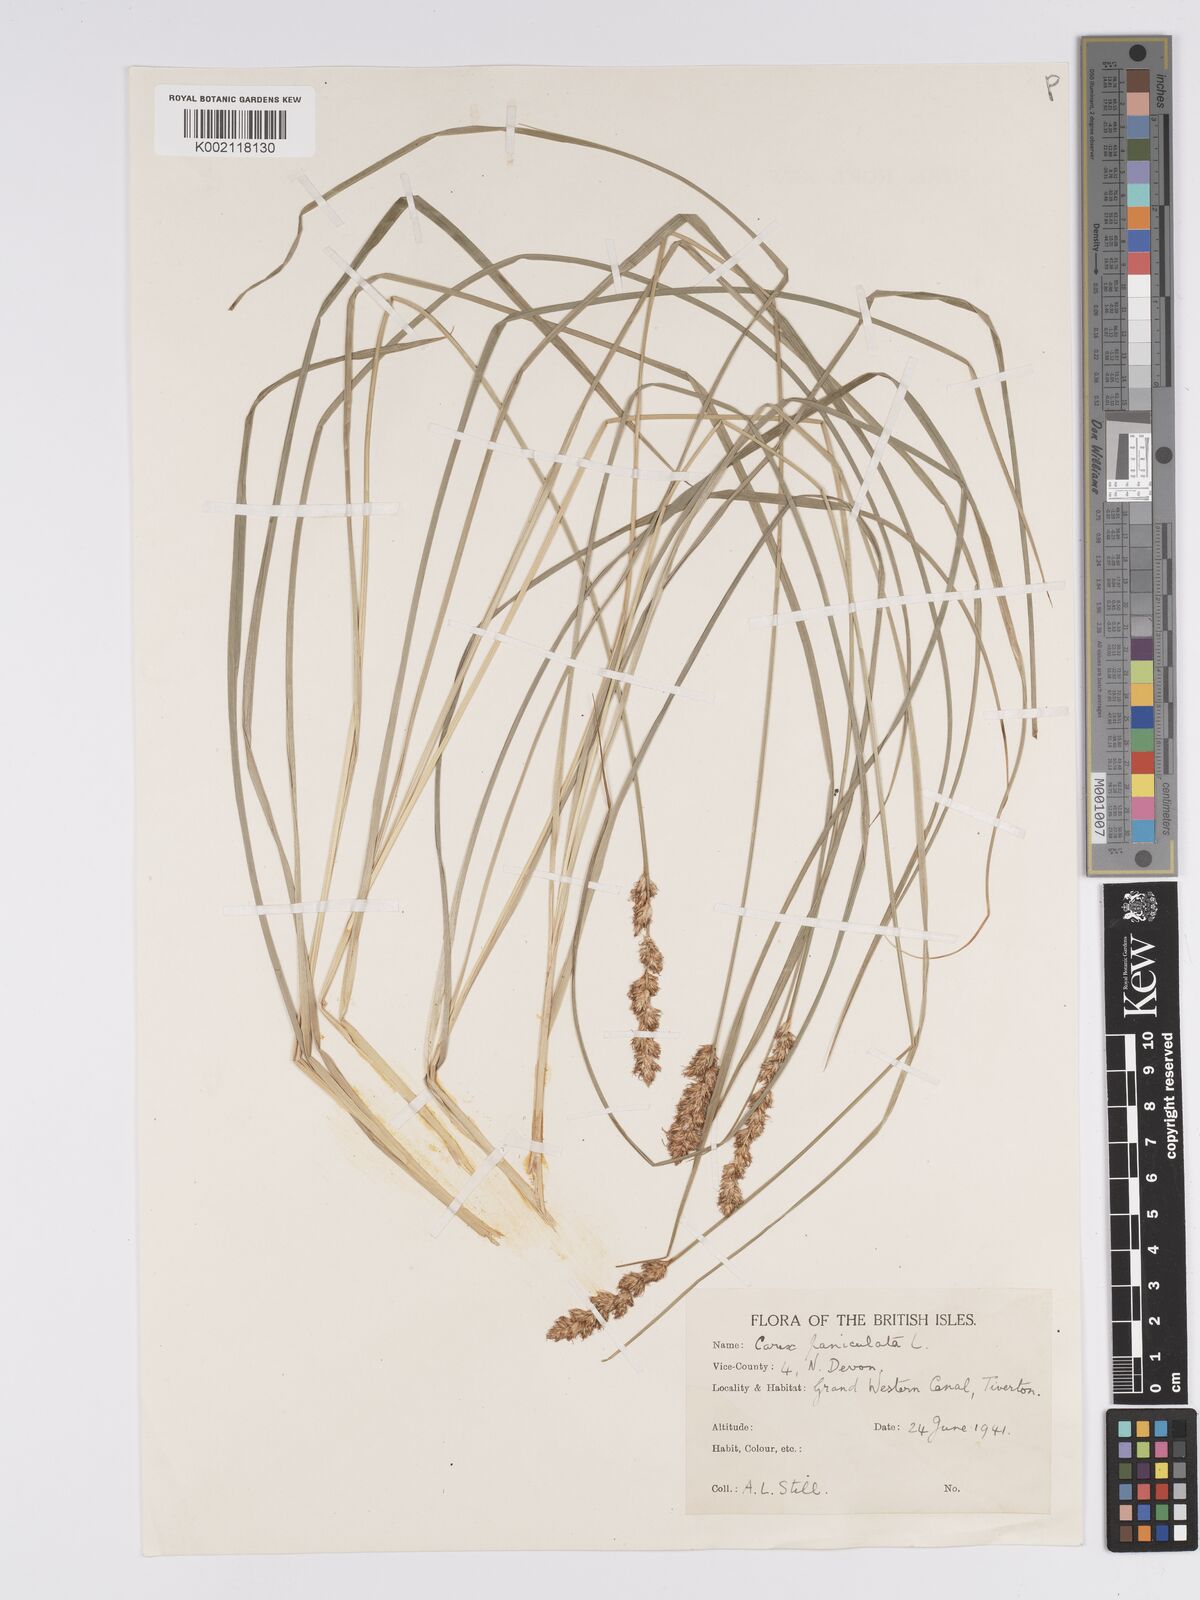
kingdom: Plantae
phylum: Tracheophyta
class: Liliopsida
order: Poales
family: Cyperaceae
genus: Carex
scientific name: Carex paniculata
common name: Greater tussock-sedge
